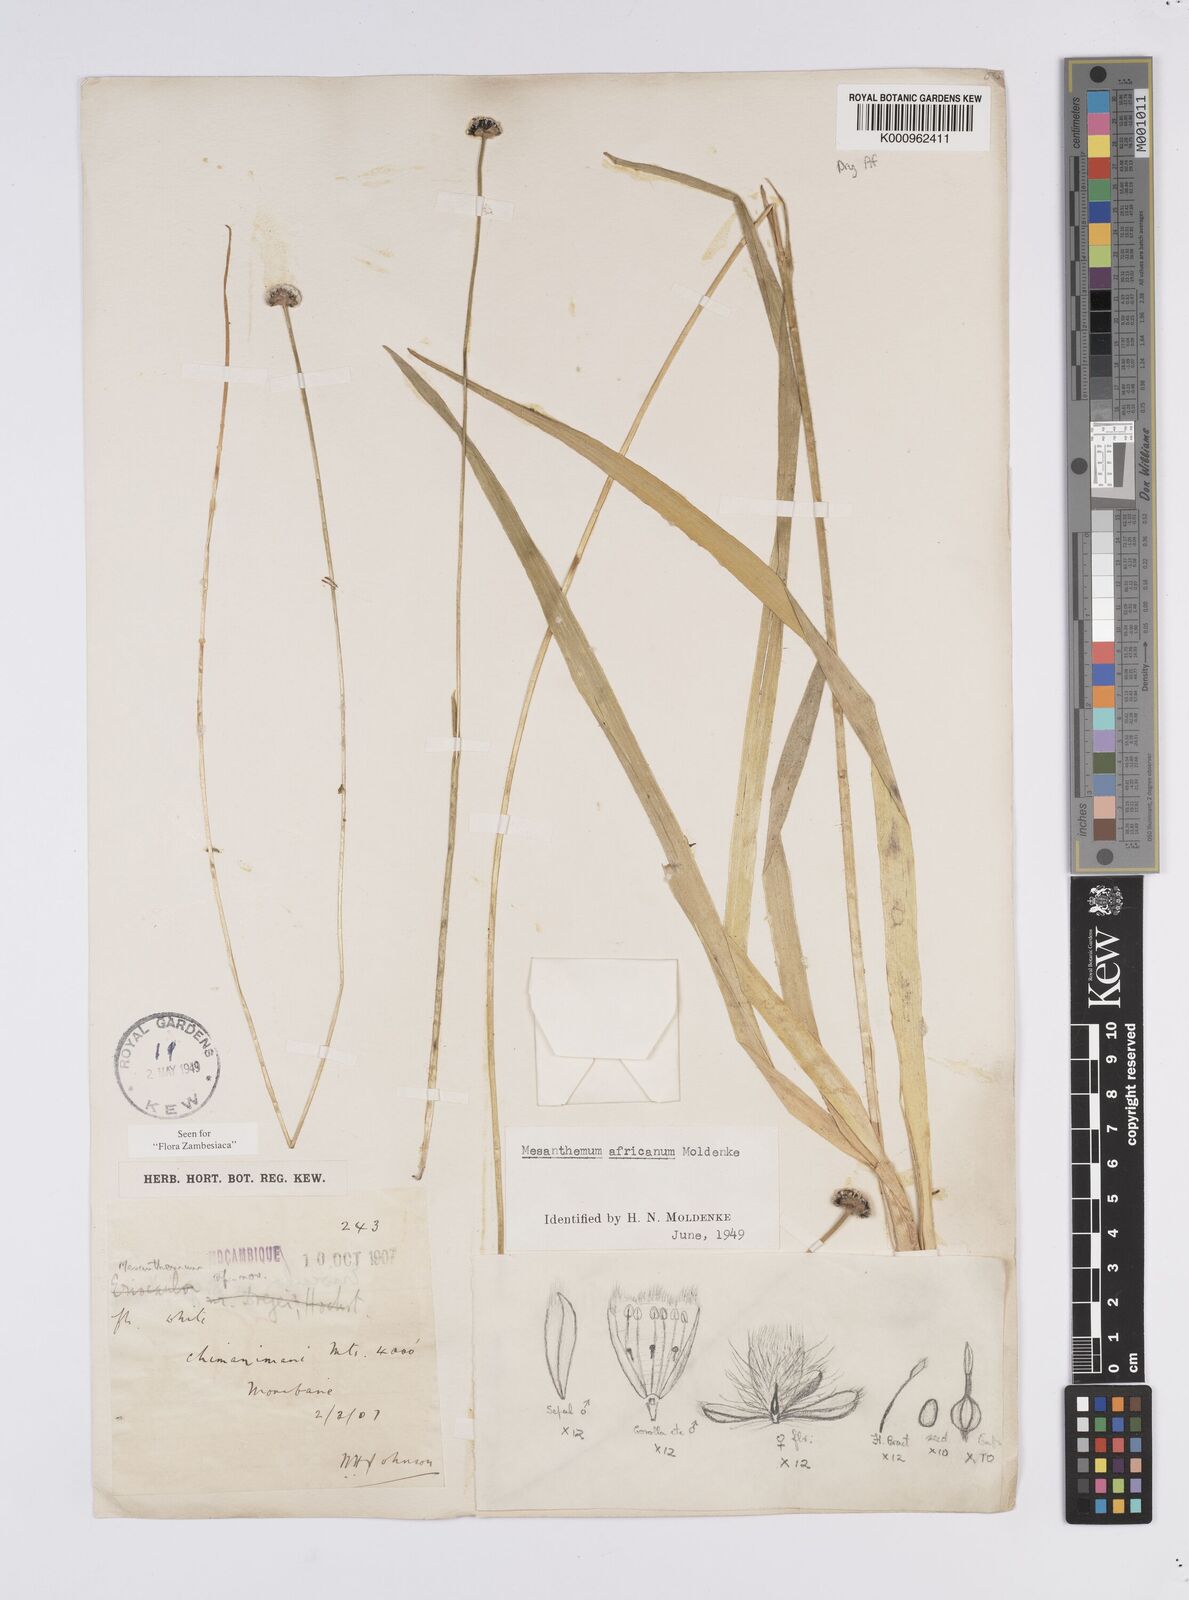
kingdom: Plantae
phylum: Tracheophyta
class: Liliopsida
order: Poales
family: Eriocaulaceae
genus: Mesanthemum
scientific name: Mesanthemum africanum
